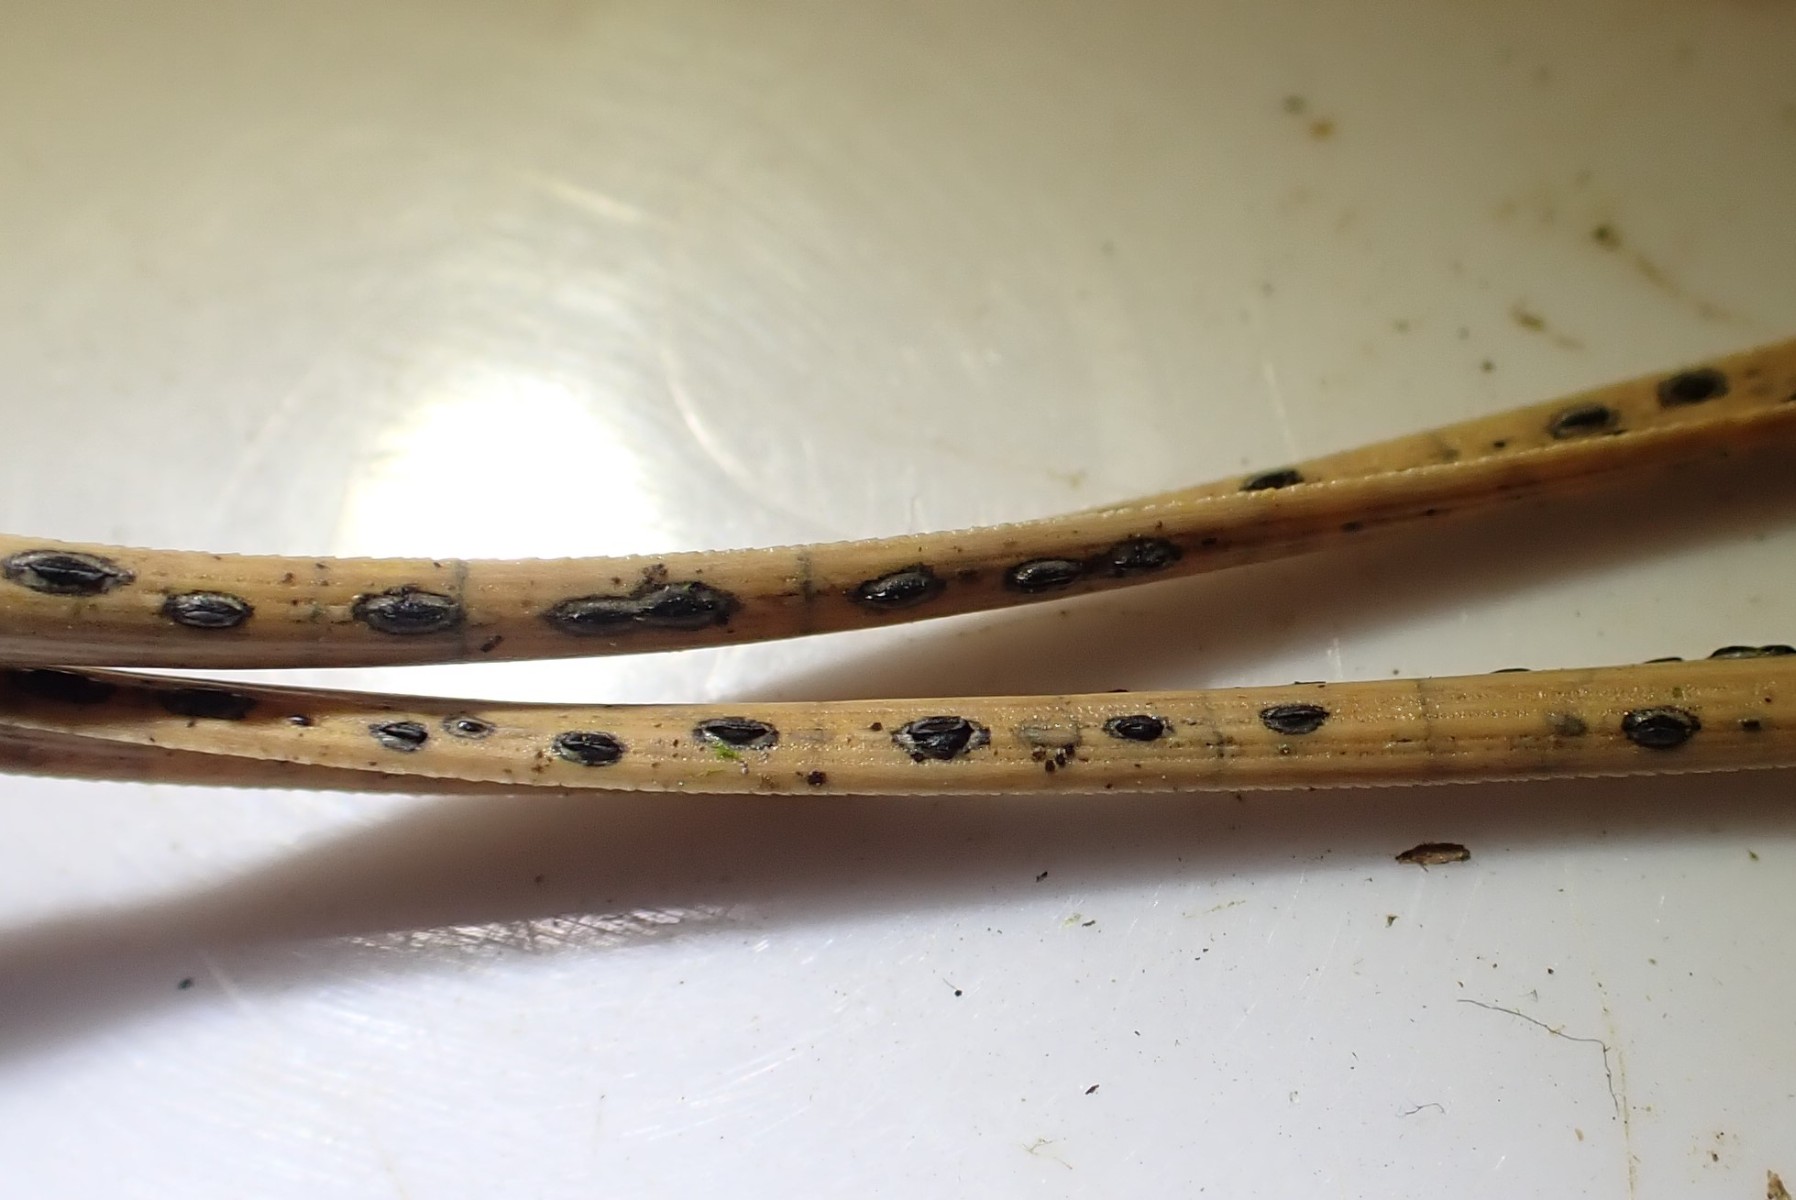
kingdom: Fungi
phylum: Ascomycota
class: Leotiomycetes
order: Rhytismatales
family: Rhytismataceae
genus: Lophodermium
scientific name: Lophodermium pinastri
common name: fyrre-fureplet
